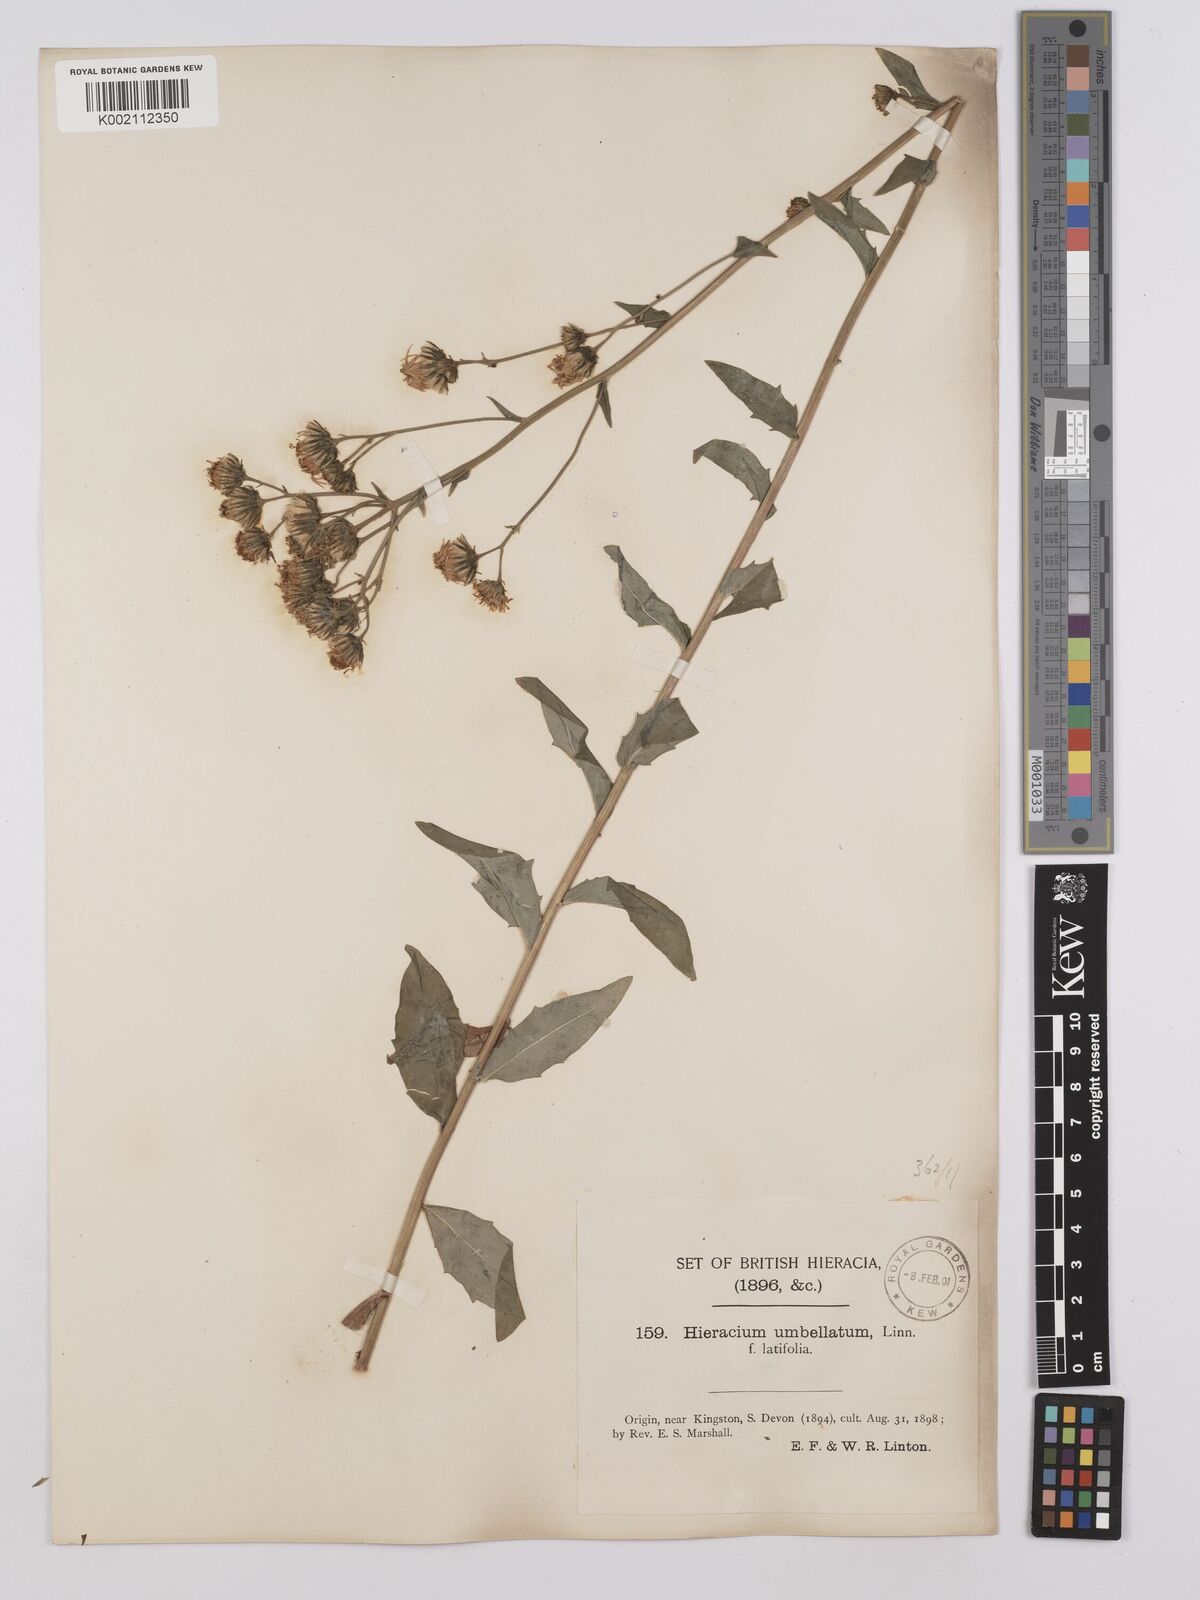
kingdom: Plantae
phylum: Tracheophyta
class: Magnoliopsida
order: Asterales
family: Asteraceae
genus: Hieracium
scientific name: Hieracium umbellatum
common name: Northern hawkweed
